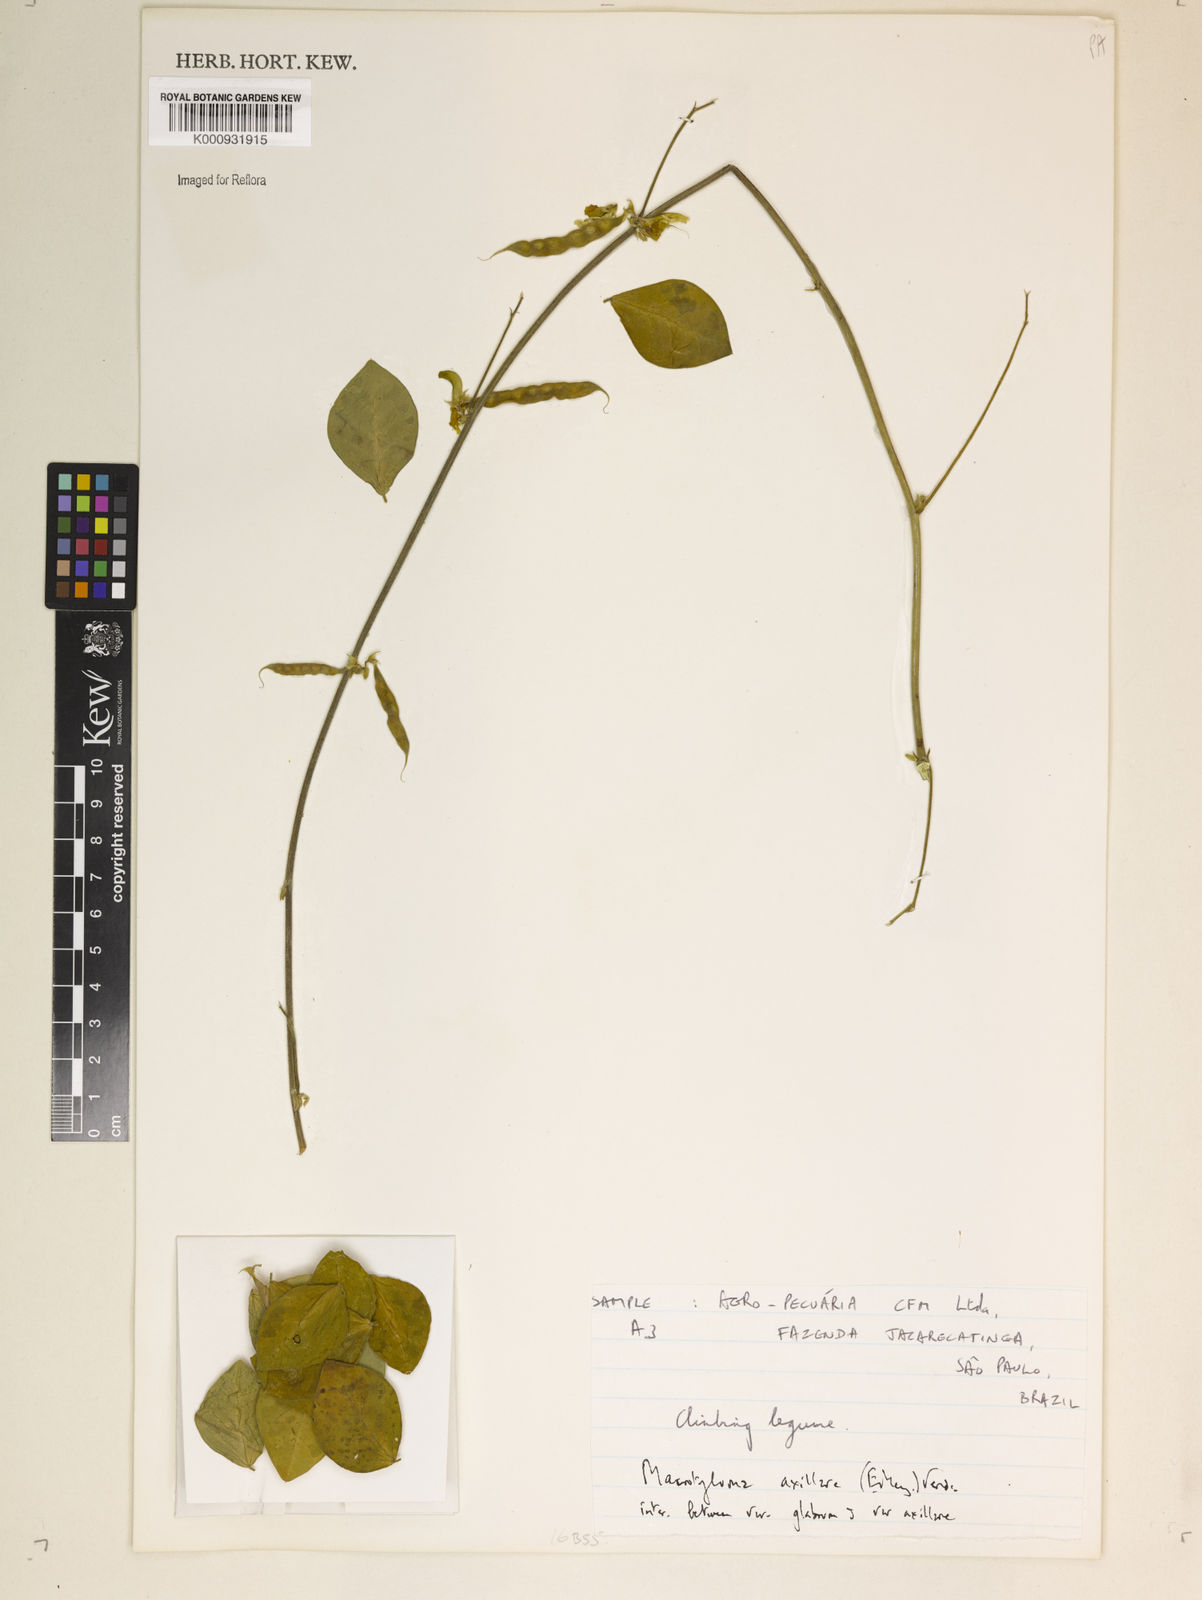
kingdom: Plantae
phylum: Tracheophyta
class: Magnoliopsida
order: Fabales
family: Fabaceae
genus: Macrotyloma
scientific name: Macrotyloma
